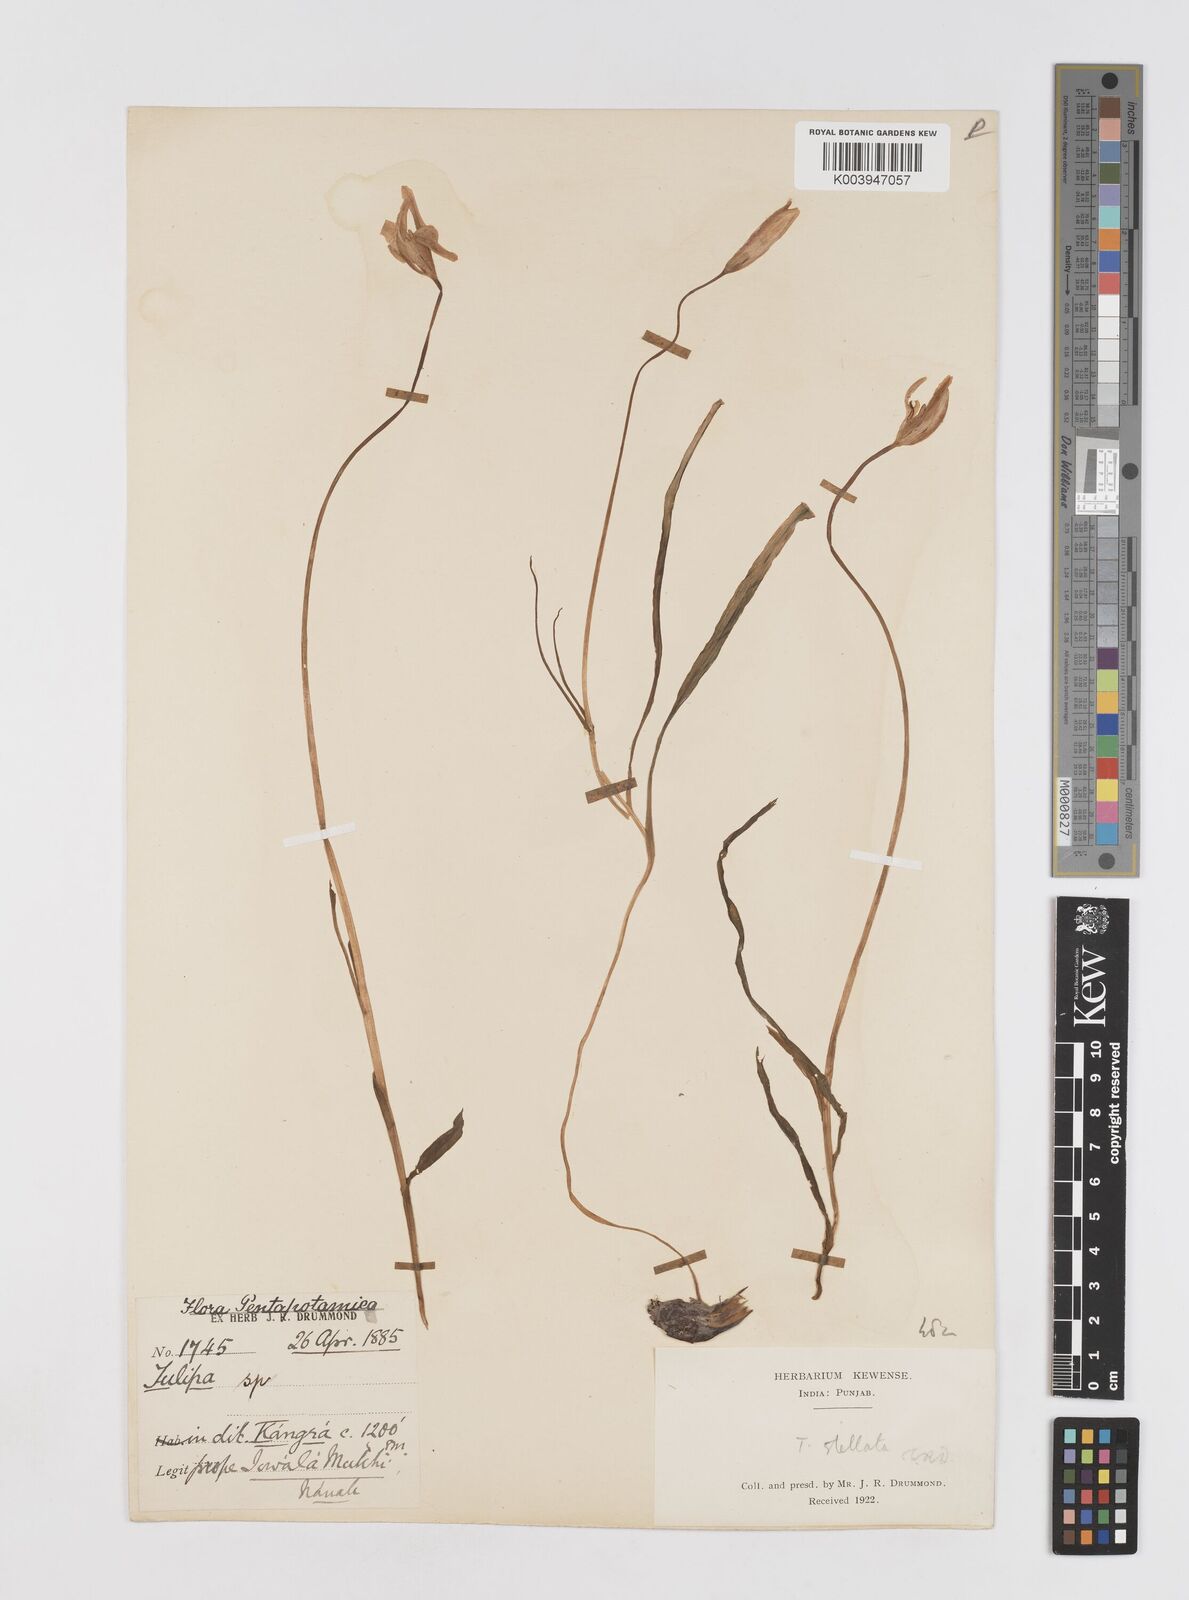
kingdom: Plantae
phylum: Tracheophyta
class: Liliopsida
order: Liliales
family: Liliaceae
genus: Tulipa
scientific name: Tulipa clusiana
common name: Lady tulip
